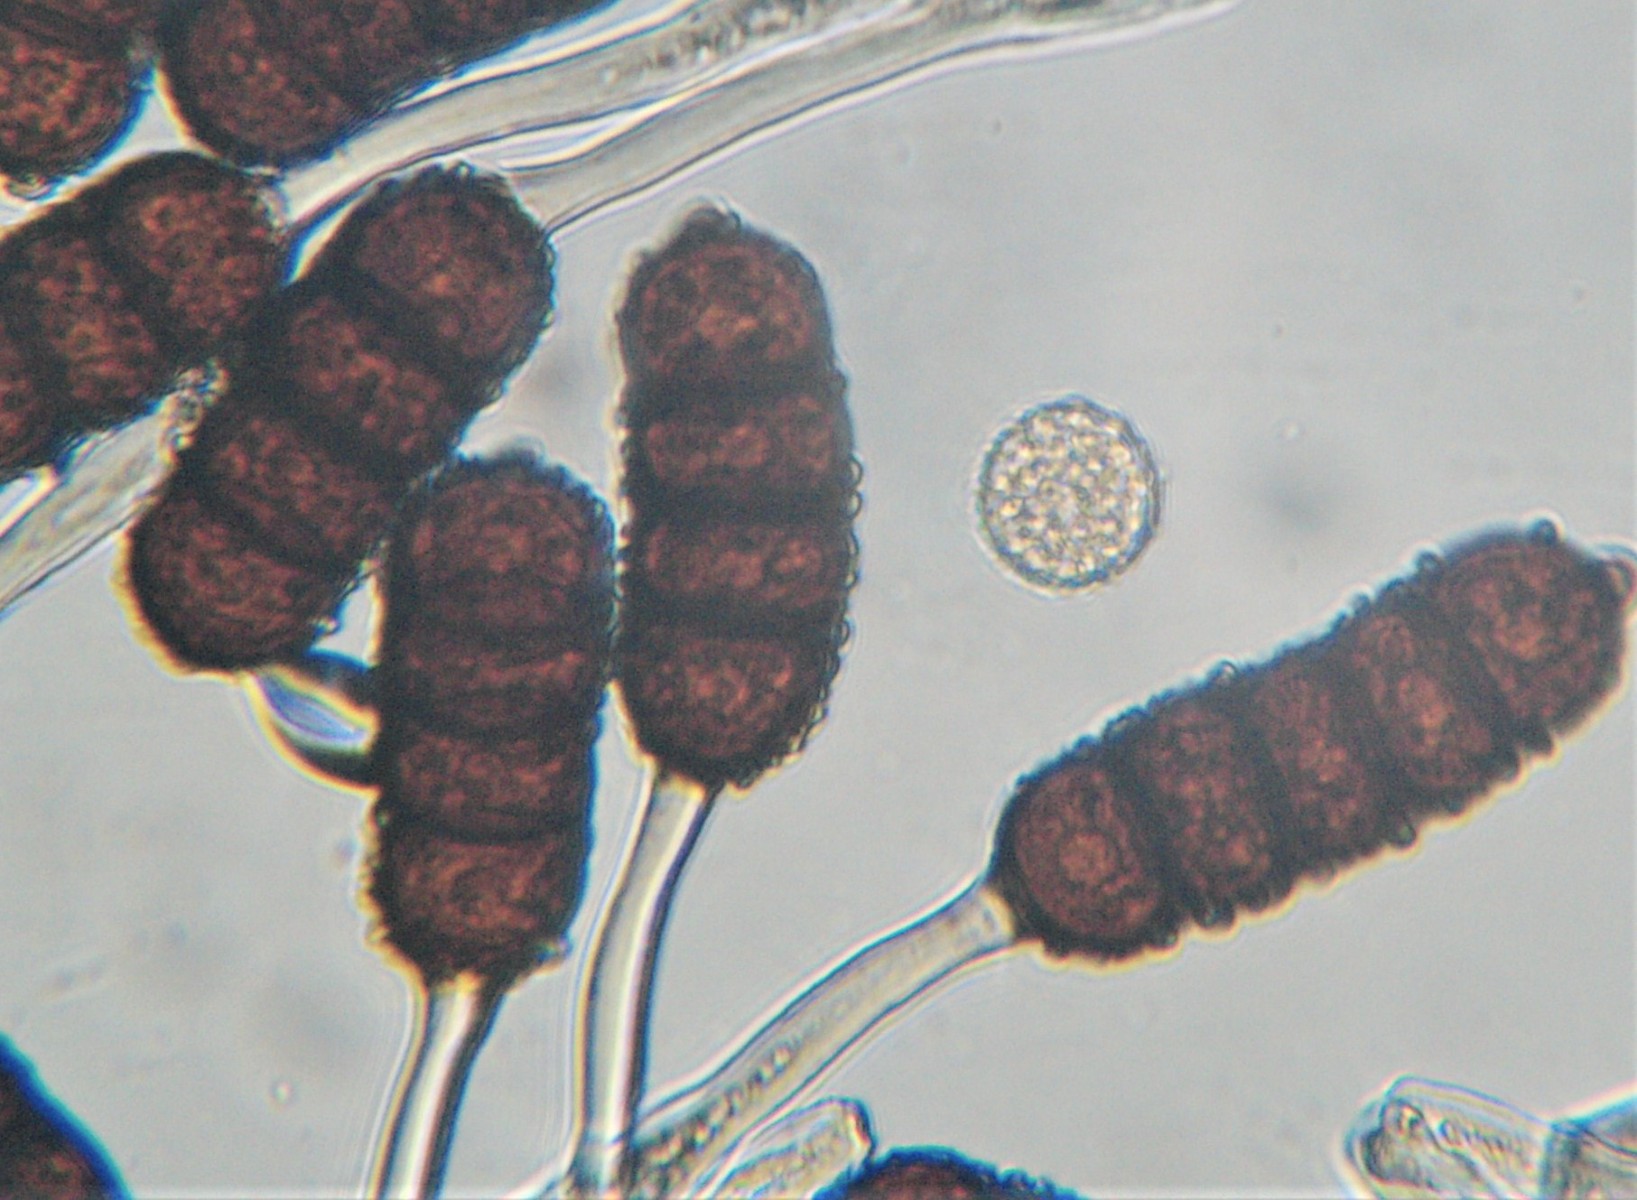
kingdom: Fungi
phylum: Basidiomycota
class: Pucciniomycetes
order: Pucciniales
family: Phragmidiaceae
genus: Phragmidium
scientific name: Phragmidium violaceum
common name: violet flercellerust
